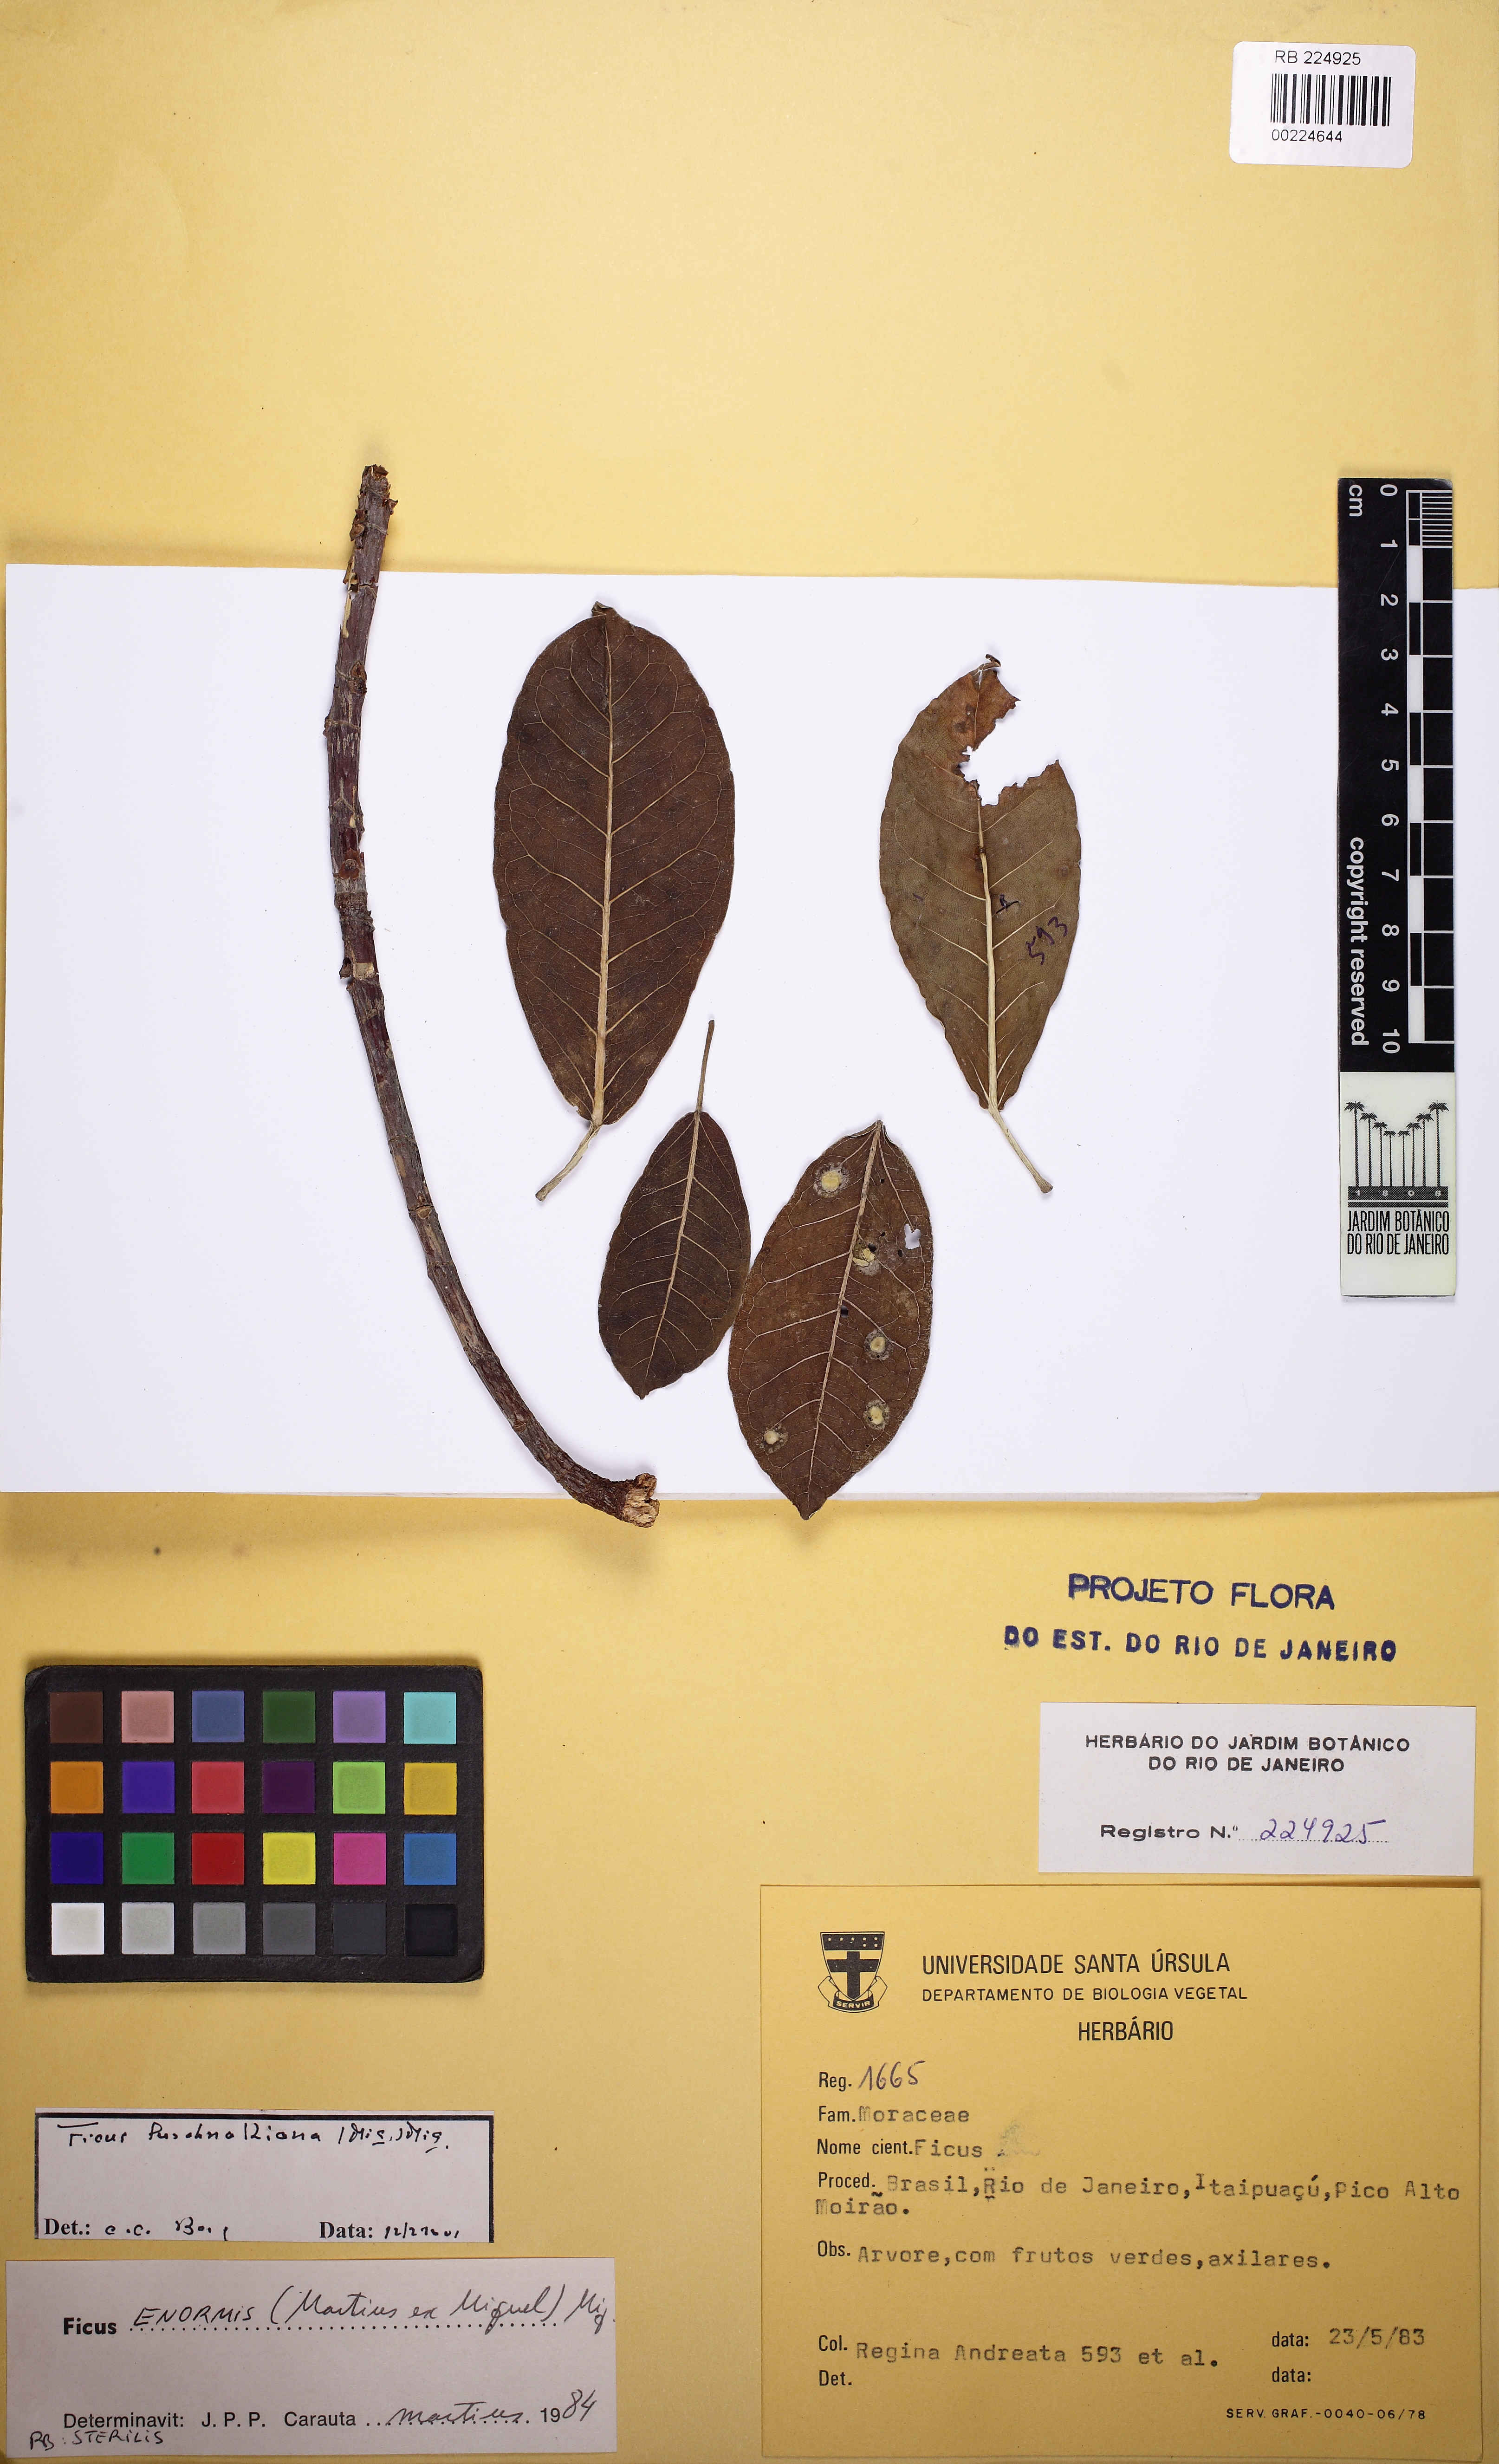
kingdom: Plantae
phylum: Tracheophyta
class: Magnoliopsida
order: Rosales
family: Moraceae
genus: Ficus
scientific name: Ficus luschnathiana
